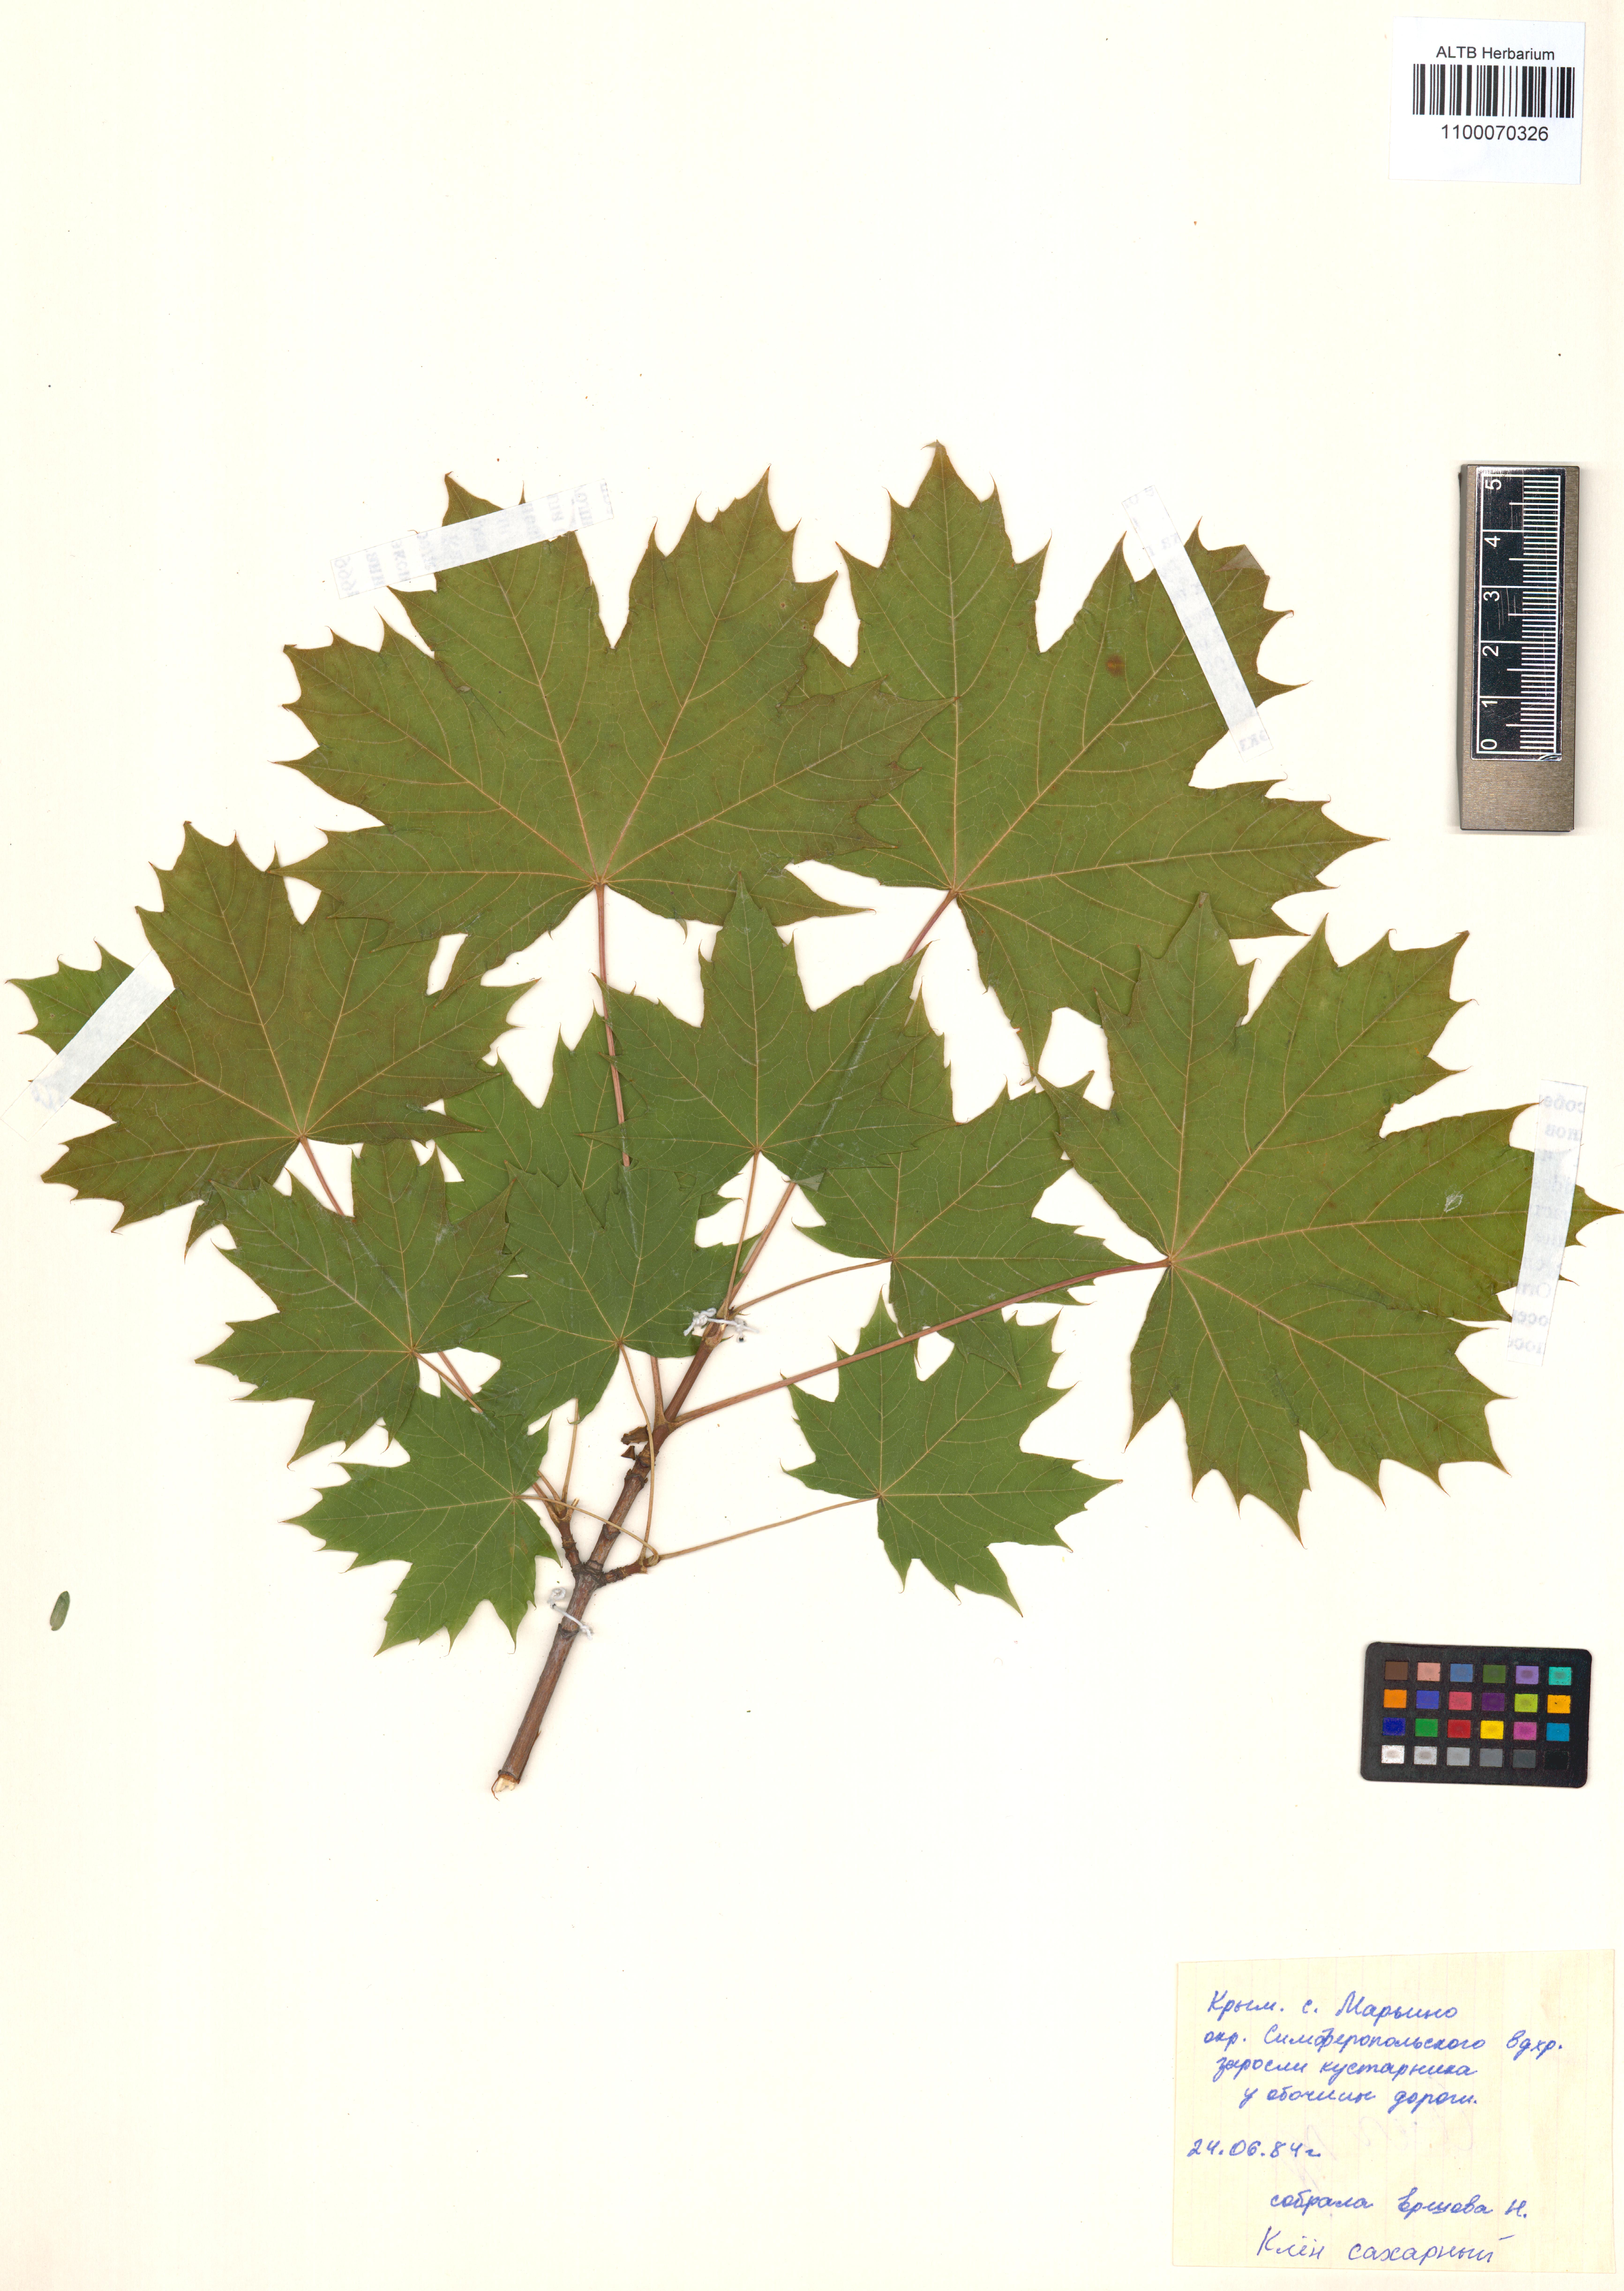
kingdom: Plantae
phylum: Tracheophyta
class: Magnoliopsida
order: Sapindales
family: Sapindaceae
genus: Acer
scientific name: Acer saccharinum
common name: Silver maple
